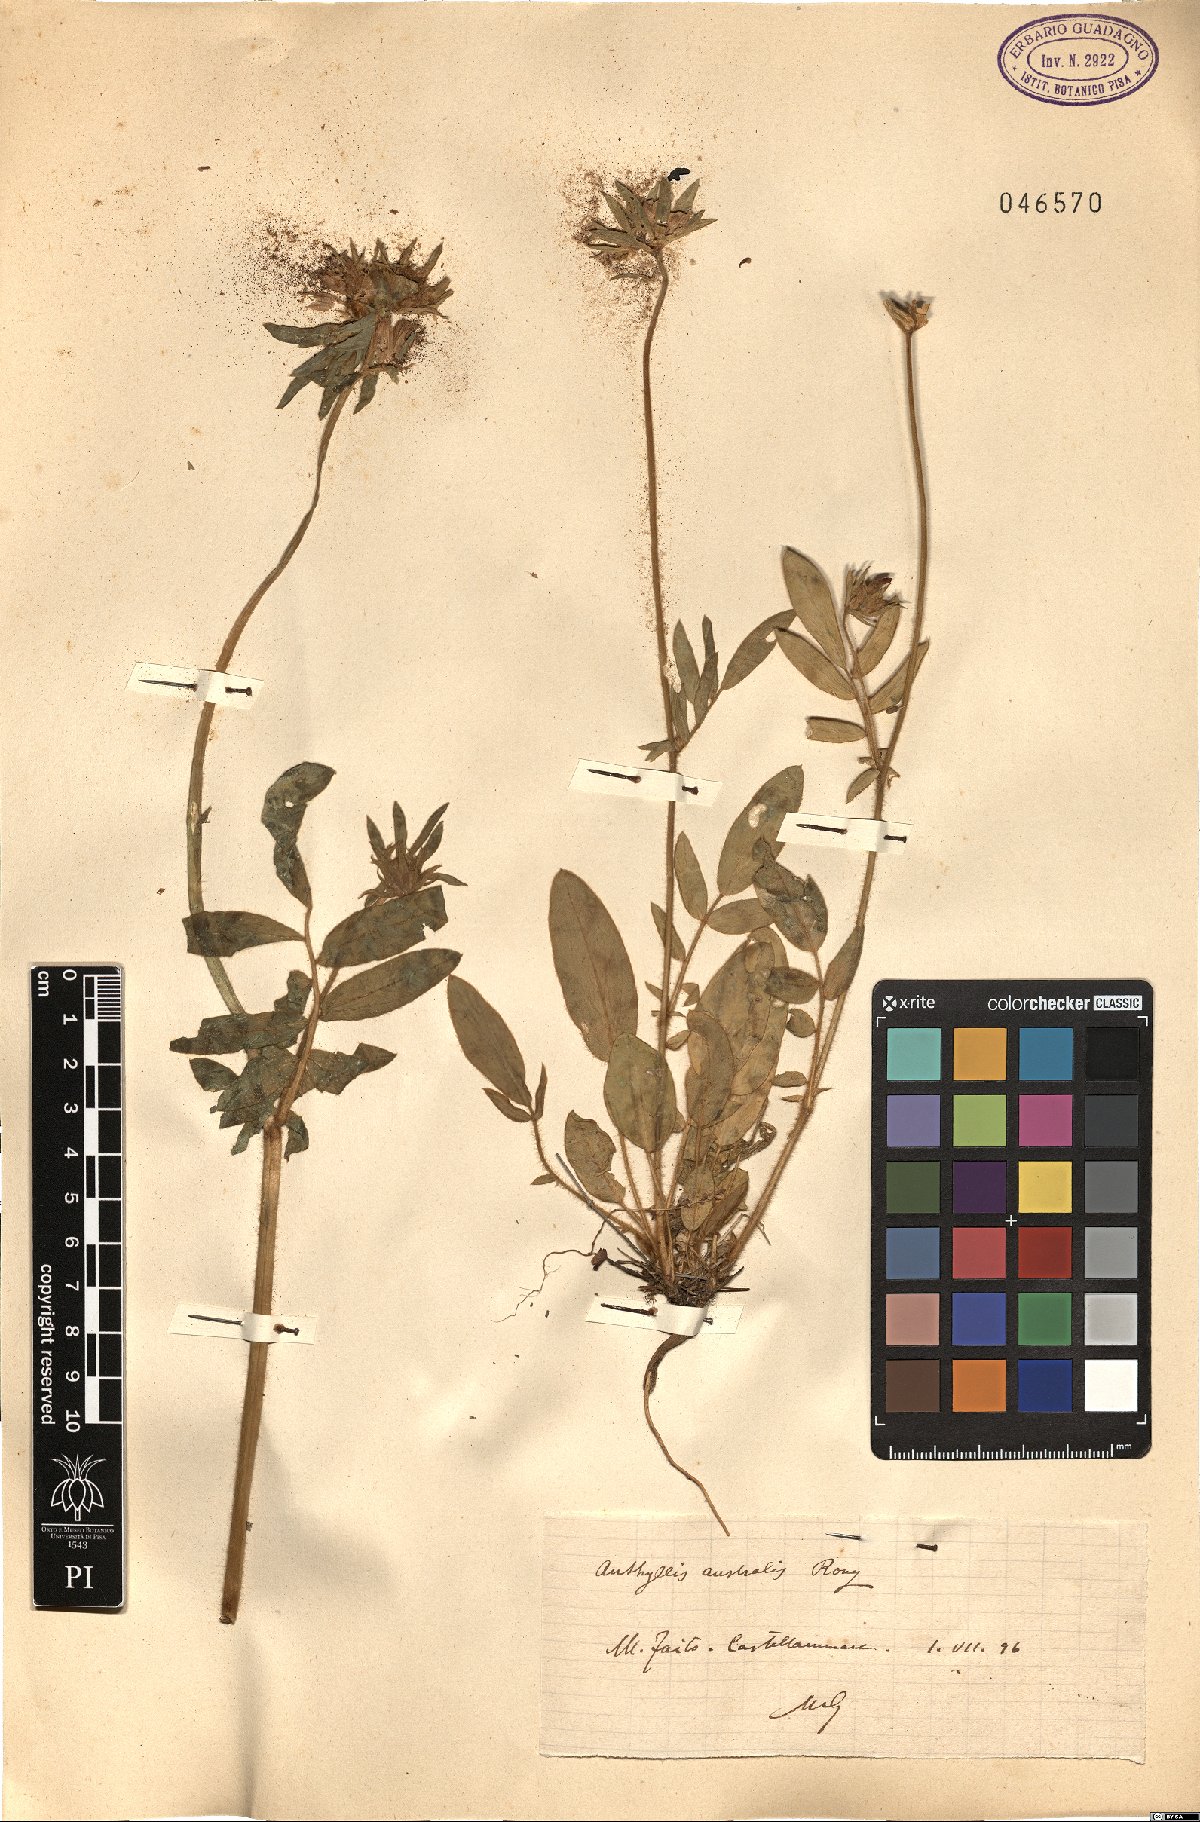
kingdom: Plantae
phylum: Tracheophyta
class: Magnoliopsida
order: Fabales
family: Fabaceae
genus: Anthyllis
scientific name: Anthyllis
